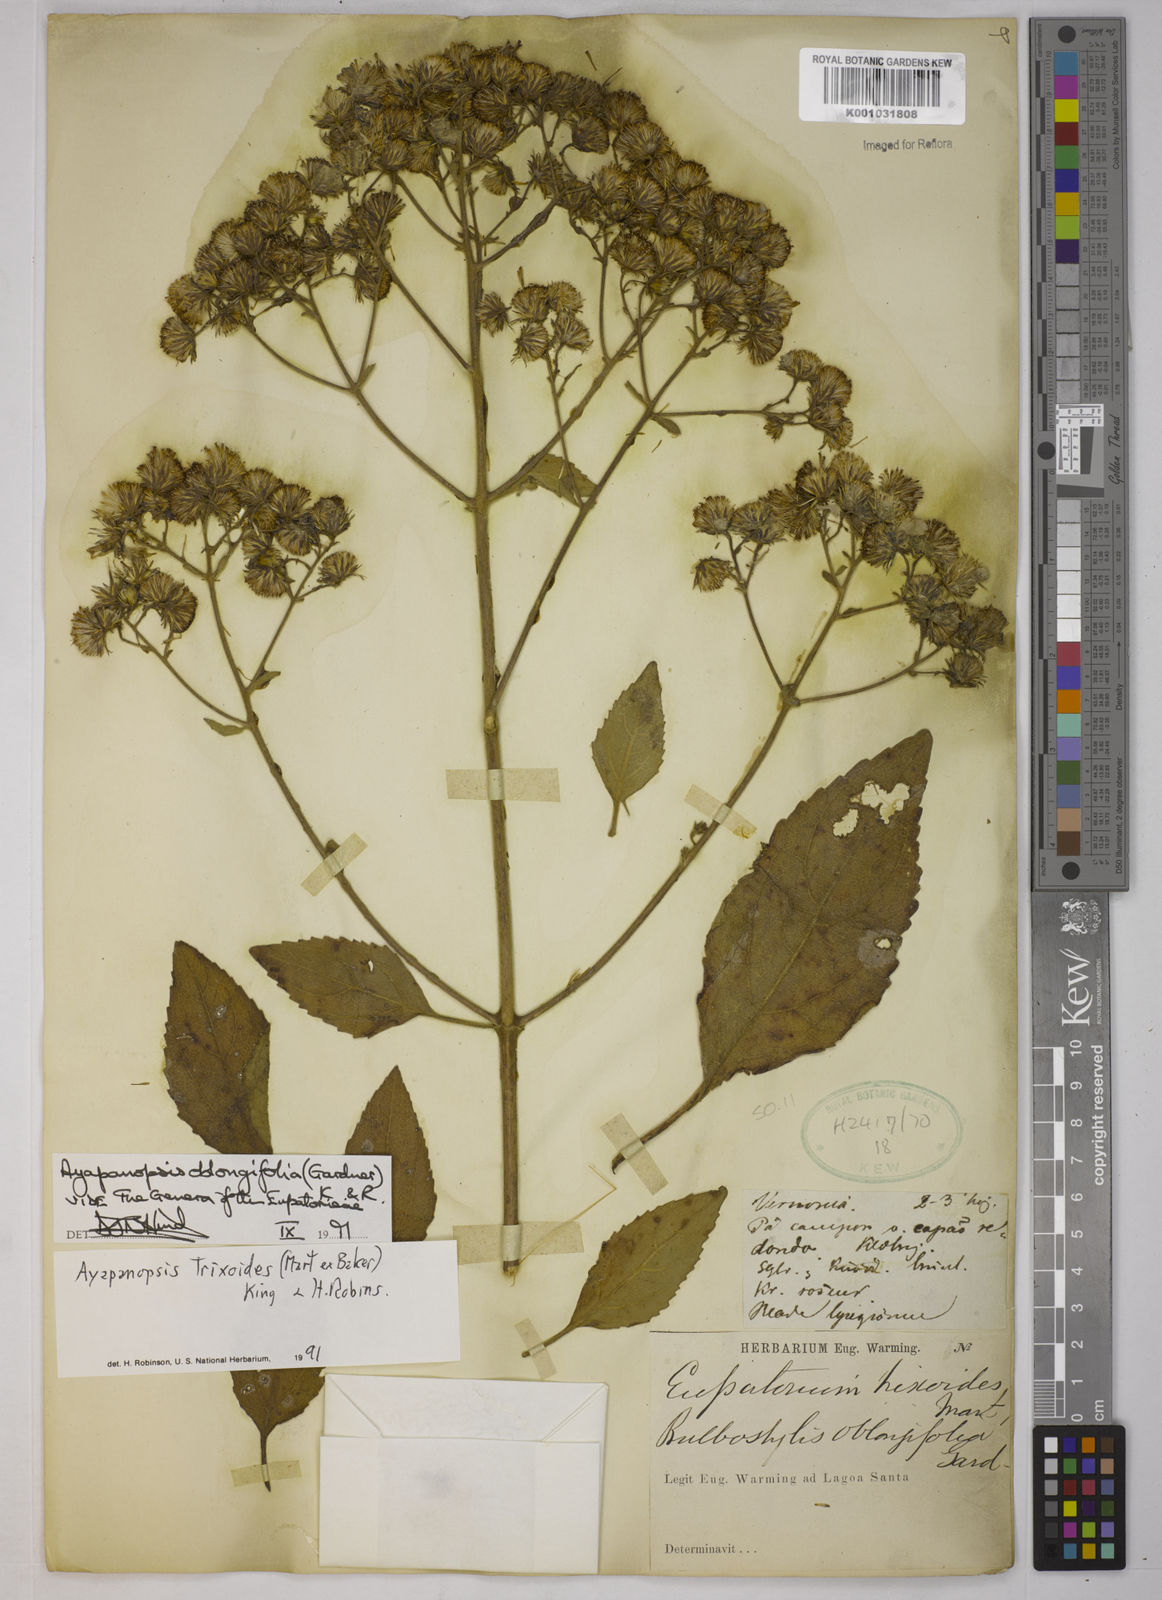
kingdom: Plantae
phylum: Tracheophyta
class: Magnoliopsida
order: Asterales
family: Asteraceae
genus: Ayapanopsis
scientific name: Ayapanopsis oblongifolia
